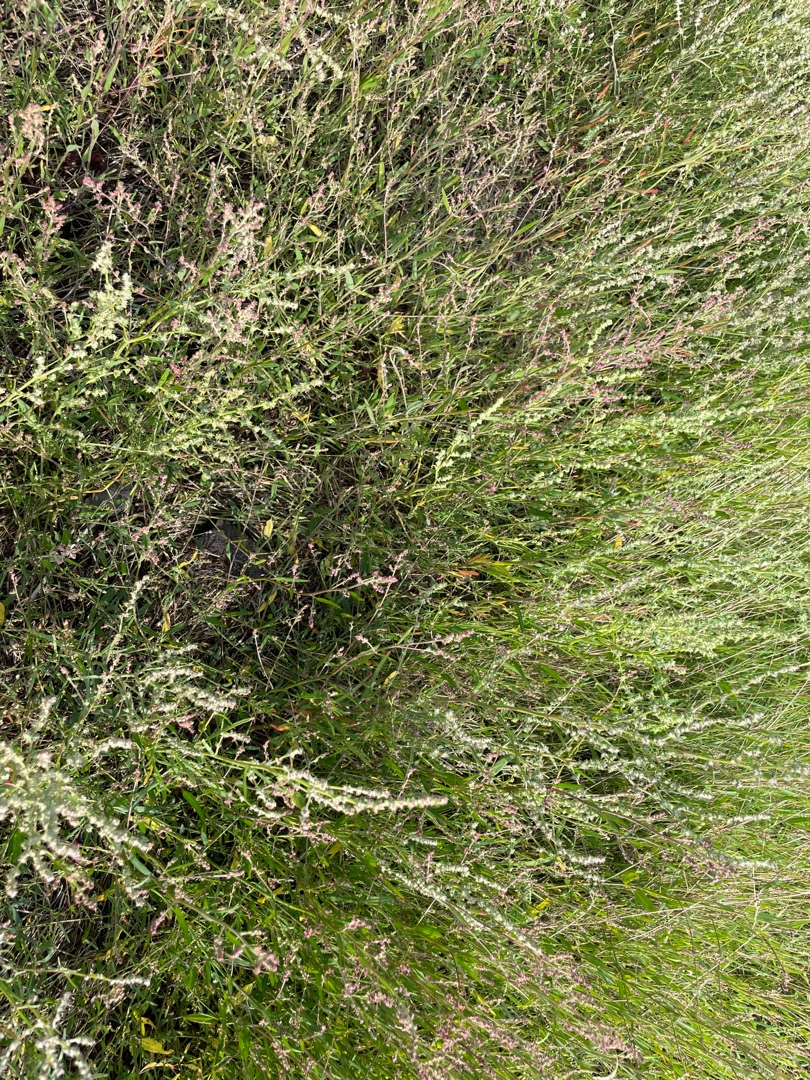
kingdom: Plantae
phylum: Tracheophyta
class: Magnoliopsida
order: Caryophyllales
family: Amaranthaceae
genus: Atriplex
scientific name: Atriplex littoralis
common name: Strand-mælde
